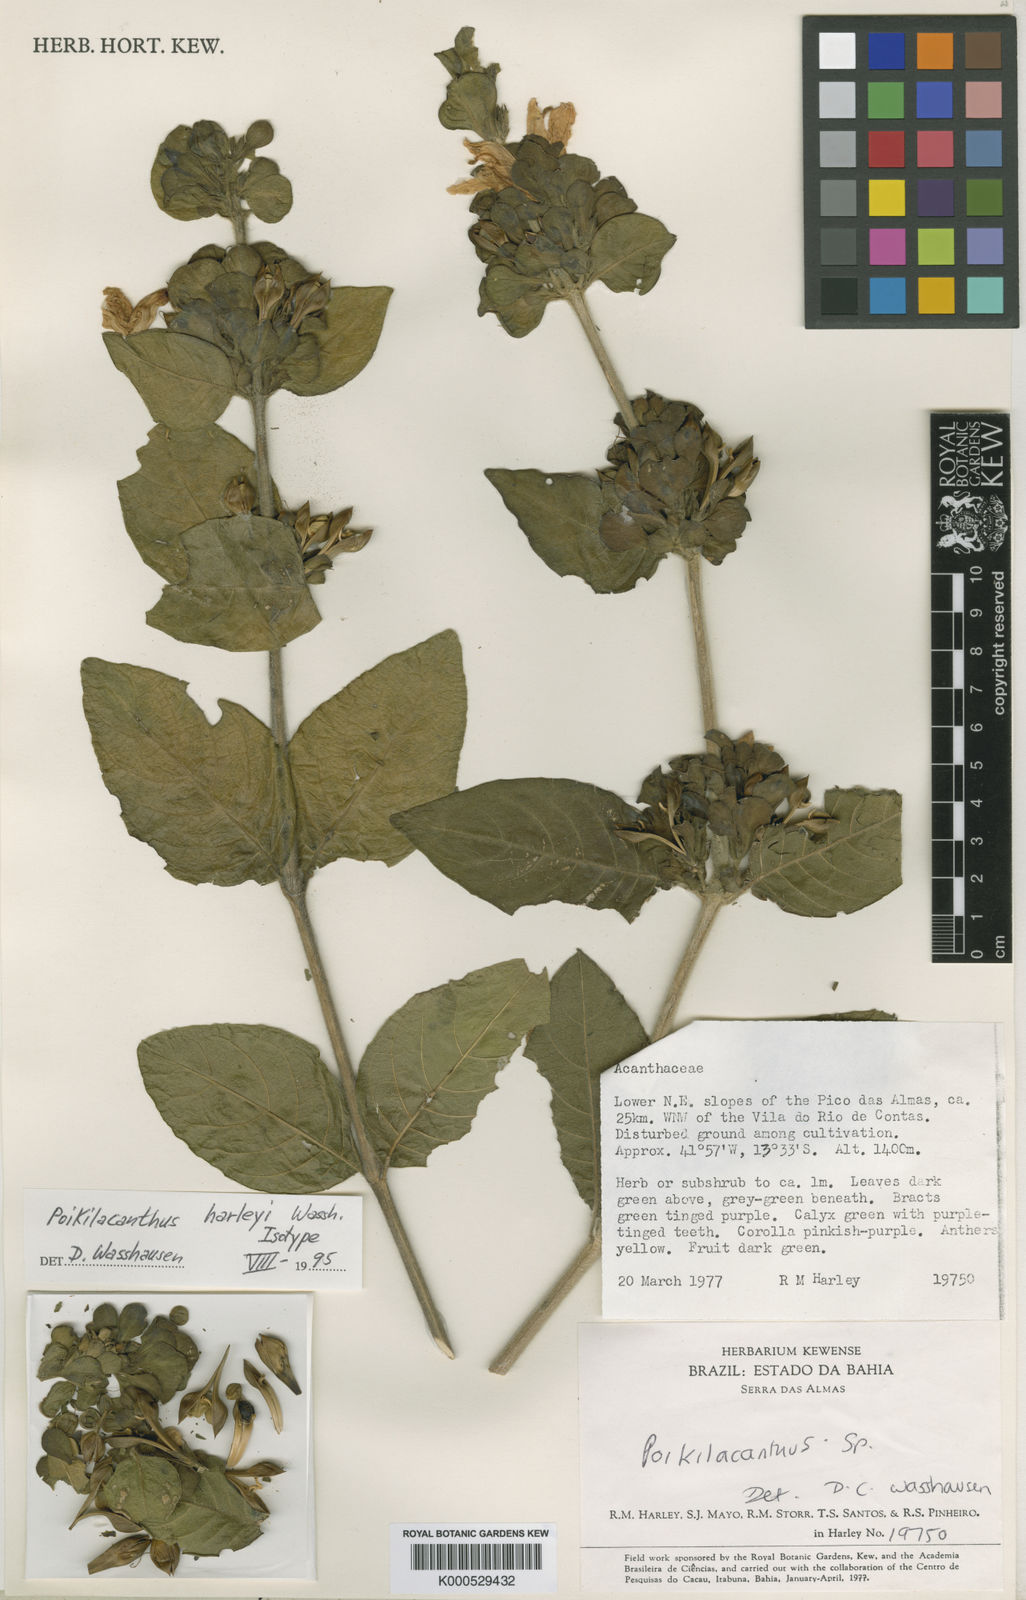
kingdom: Plantae
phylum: Tracheophyta
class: Magnoliopsida
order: Lamiales
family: Acanthaceae
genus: Poikilacanthus
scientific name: Poikilacanthus bahiensis
